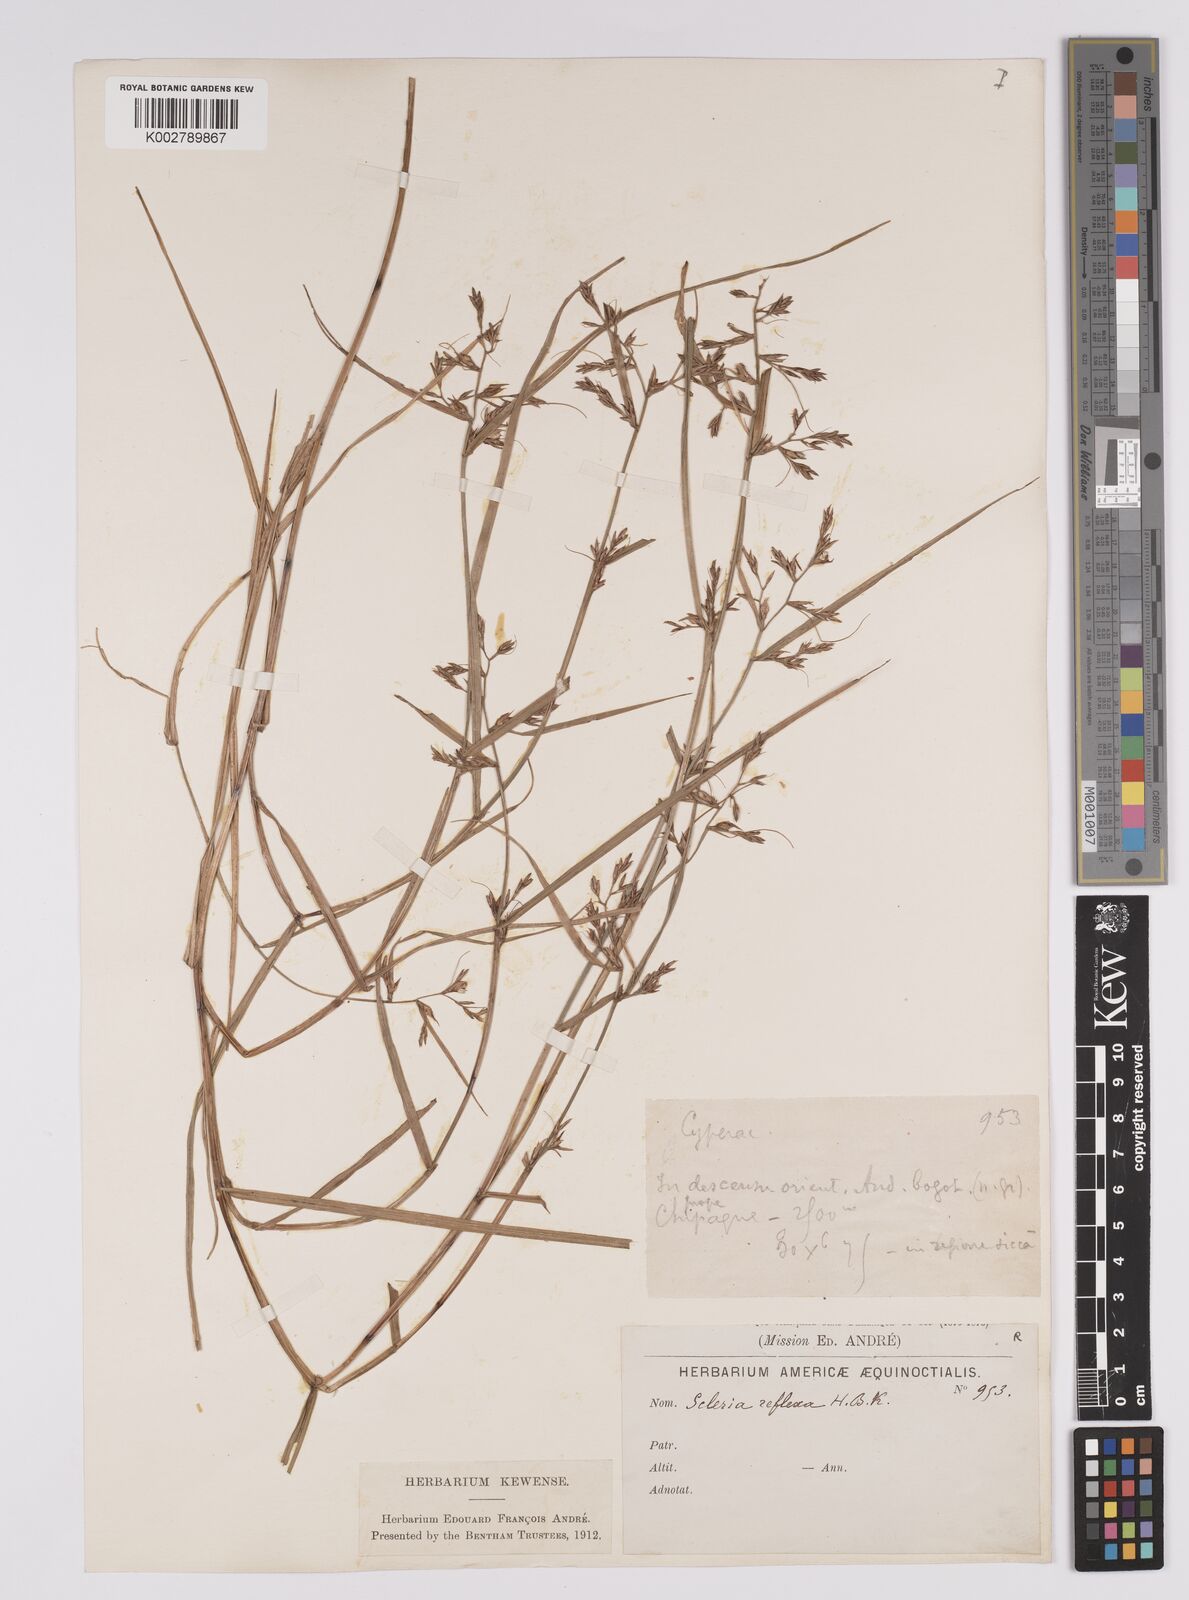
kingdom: Plantae
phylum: Tracheophyta
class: Liliopsida
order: Poales
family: Cyperaceae
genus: Scleria
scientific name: Scleria
